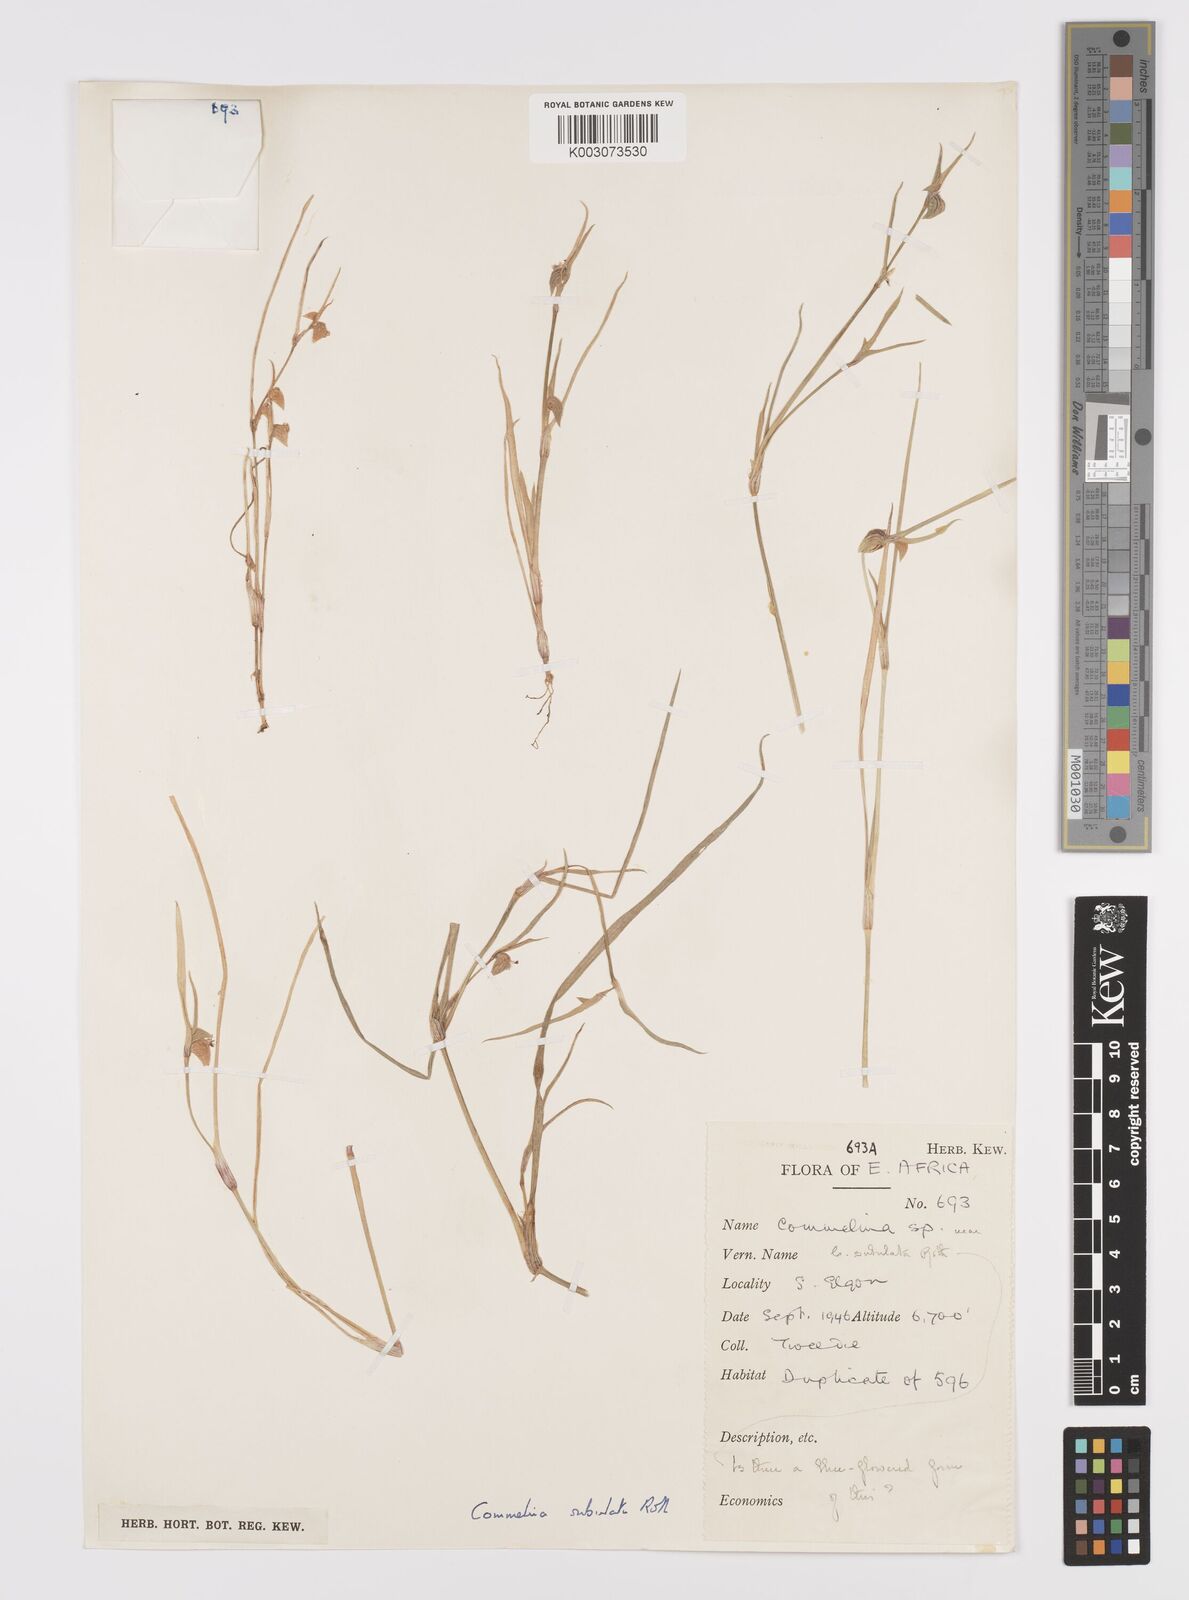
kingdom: Plantae
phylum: Tracheophyta
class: Liliopsida
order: Commelinales
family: Commelinaceae
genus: Commelina
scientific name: Commelina subulata
